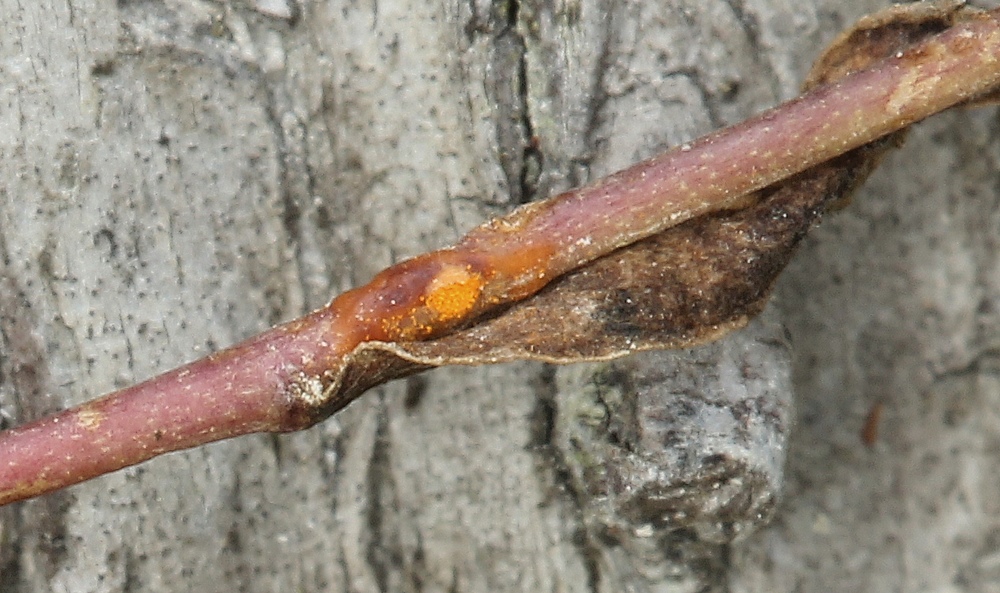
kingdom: Fungi
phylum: Basidiomycota
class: Pucciniomycetes
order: Pucciniales
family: Melampsoraceae
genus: Melampsora
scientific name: Melampsora lini
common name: hør-skorperust
